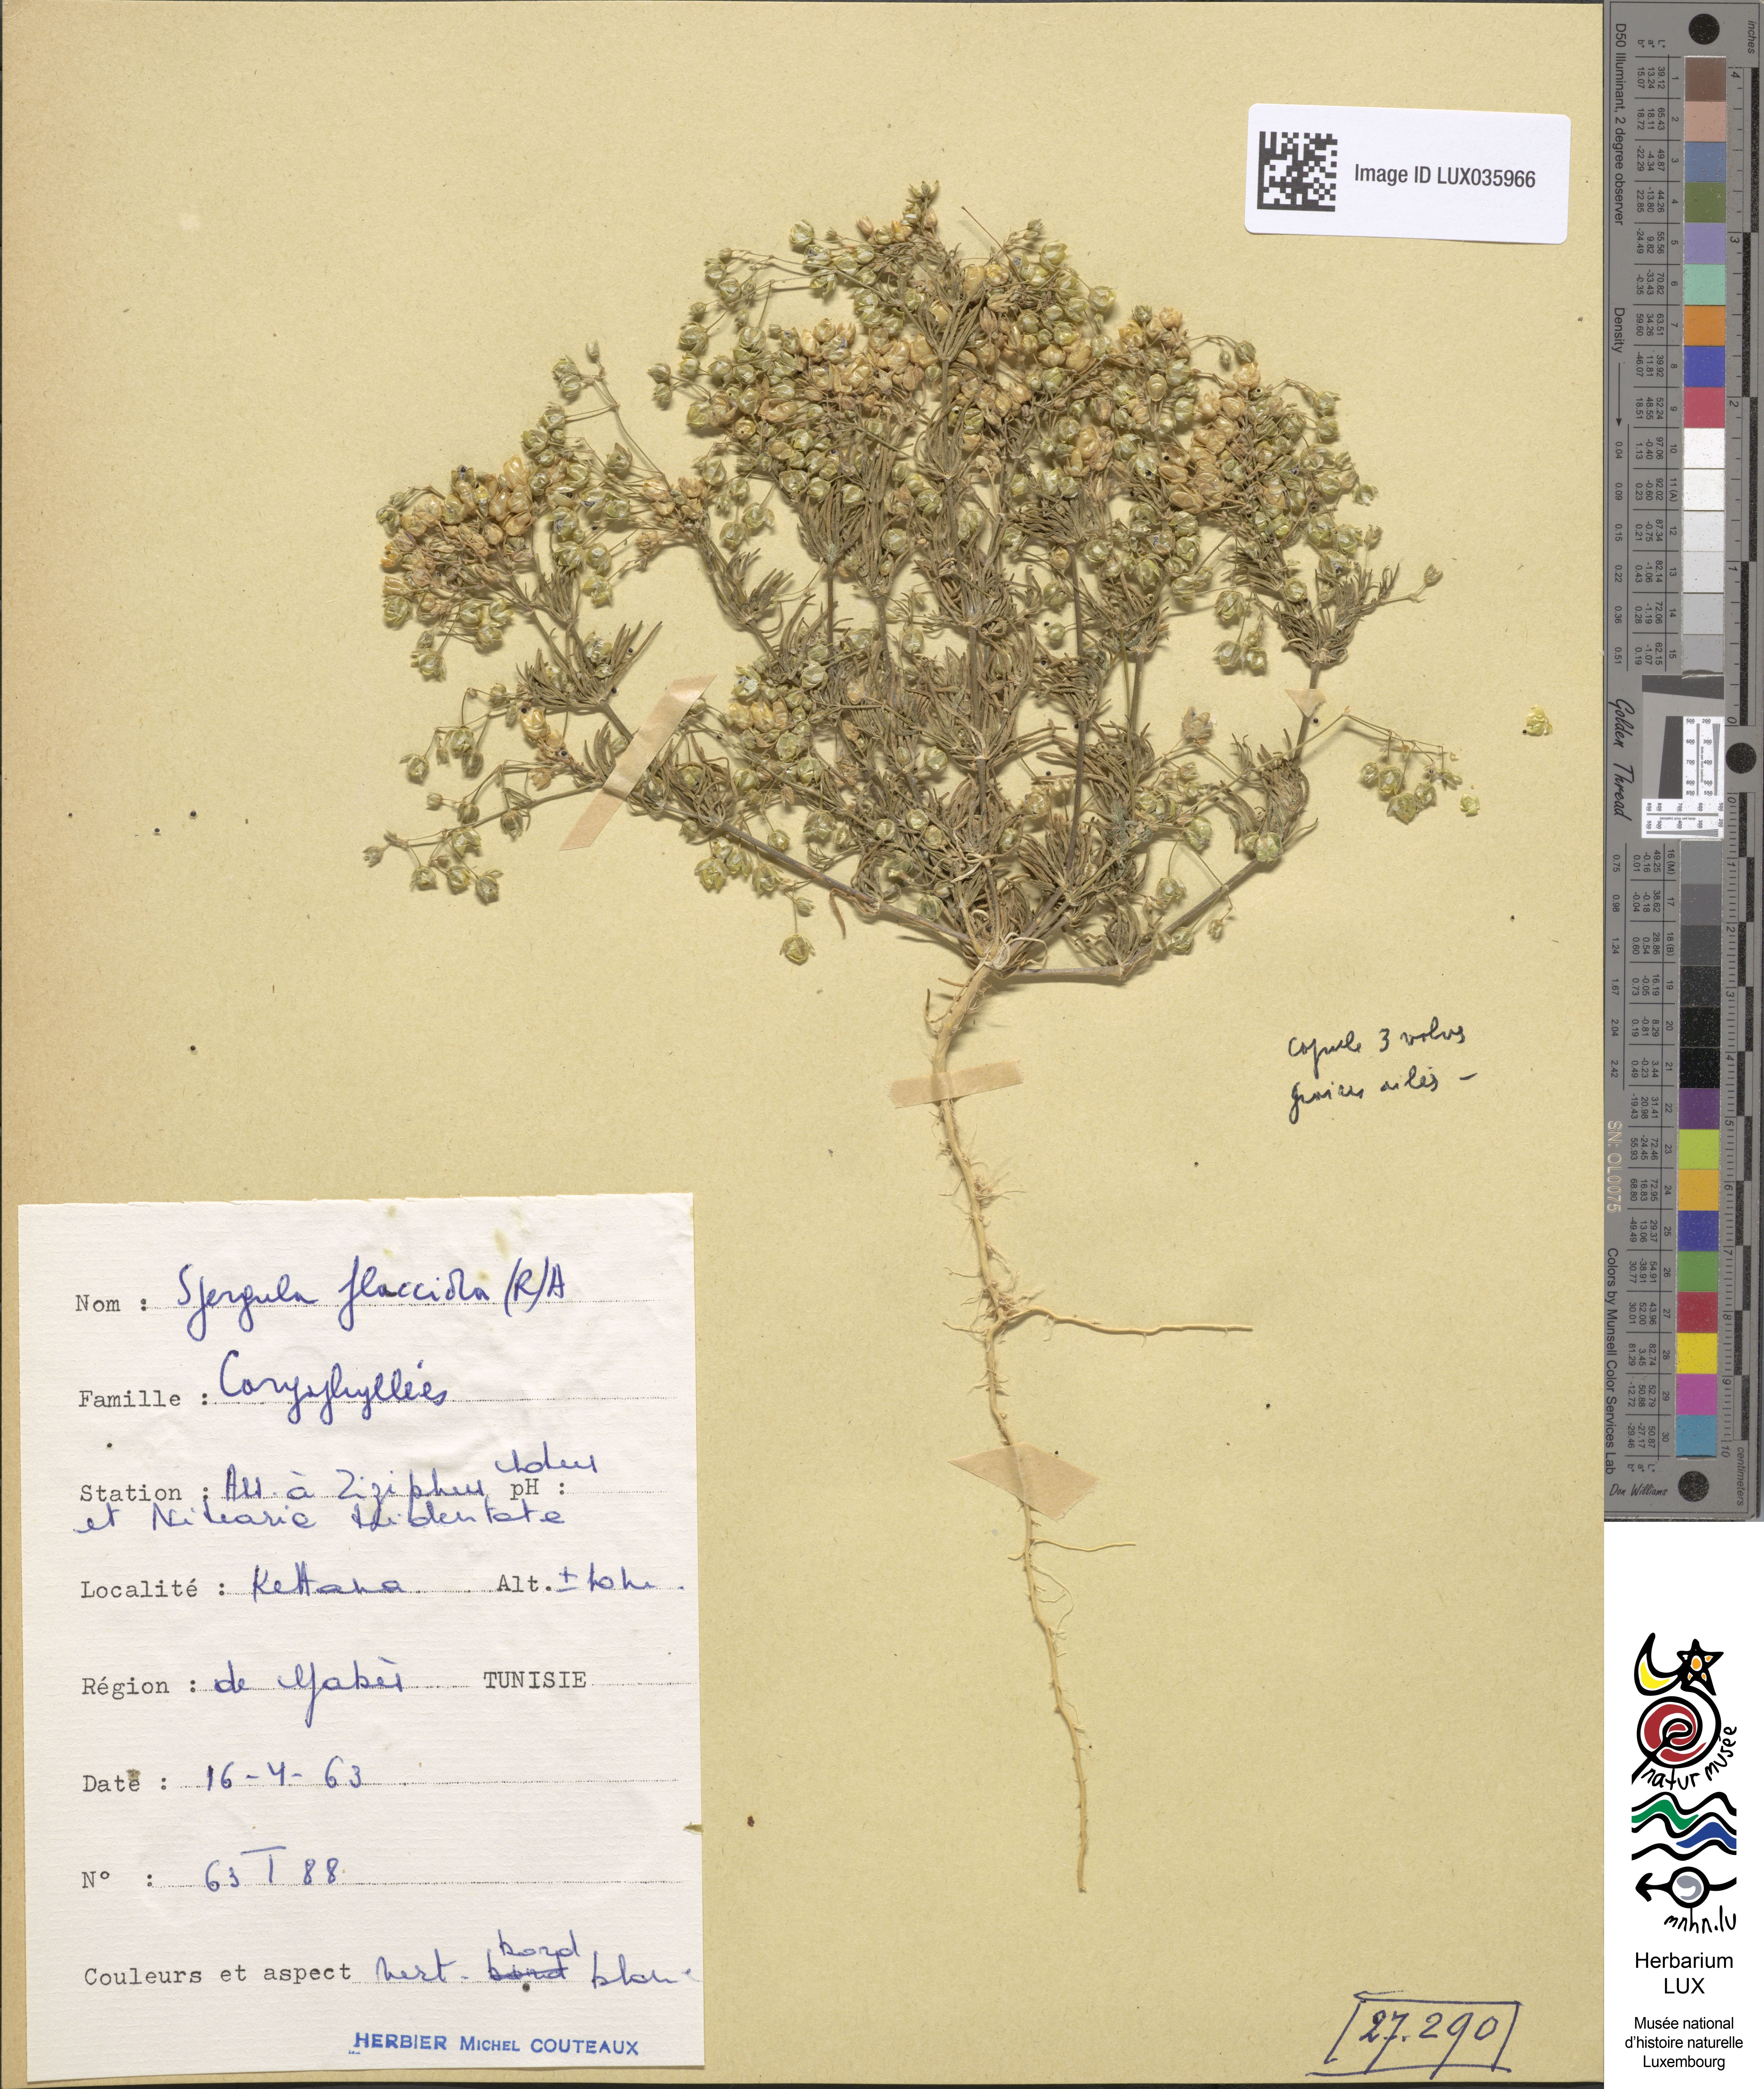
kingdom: Plantae
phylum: Tracheophyta
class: Magnoliopsida
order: Caryophyllales
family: Caryophyllaceae
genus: Spergularia
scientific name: Spergularia flaccida
